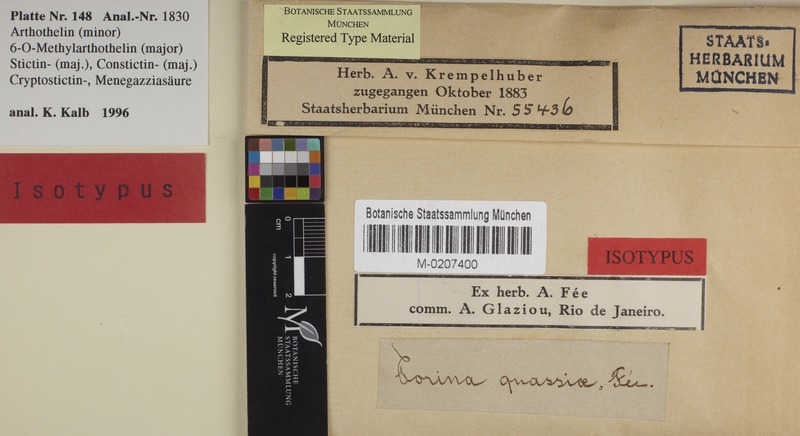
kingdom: Fungi
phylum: Ascomycota
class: Lecanoromycetes
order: Pertusariales
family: Pertusariaceae
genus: Pertusaria
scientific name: Pertusaria quassiae
